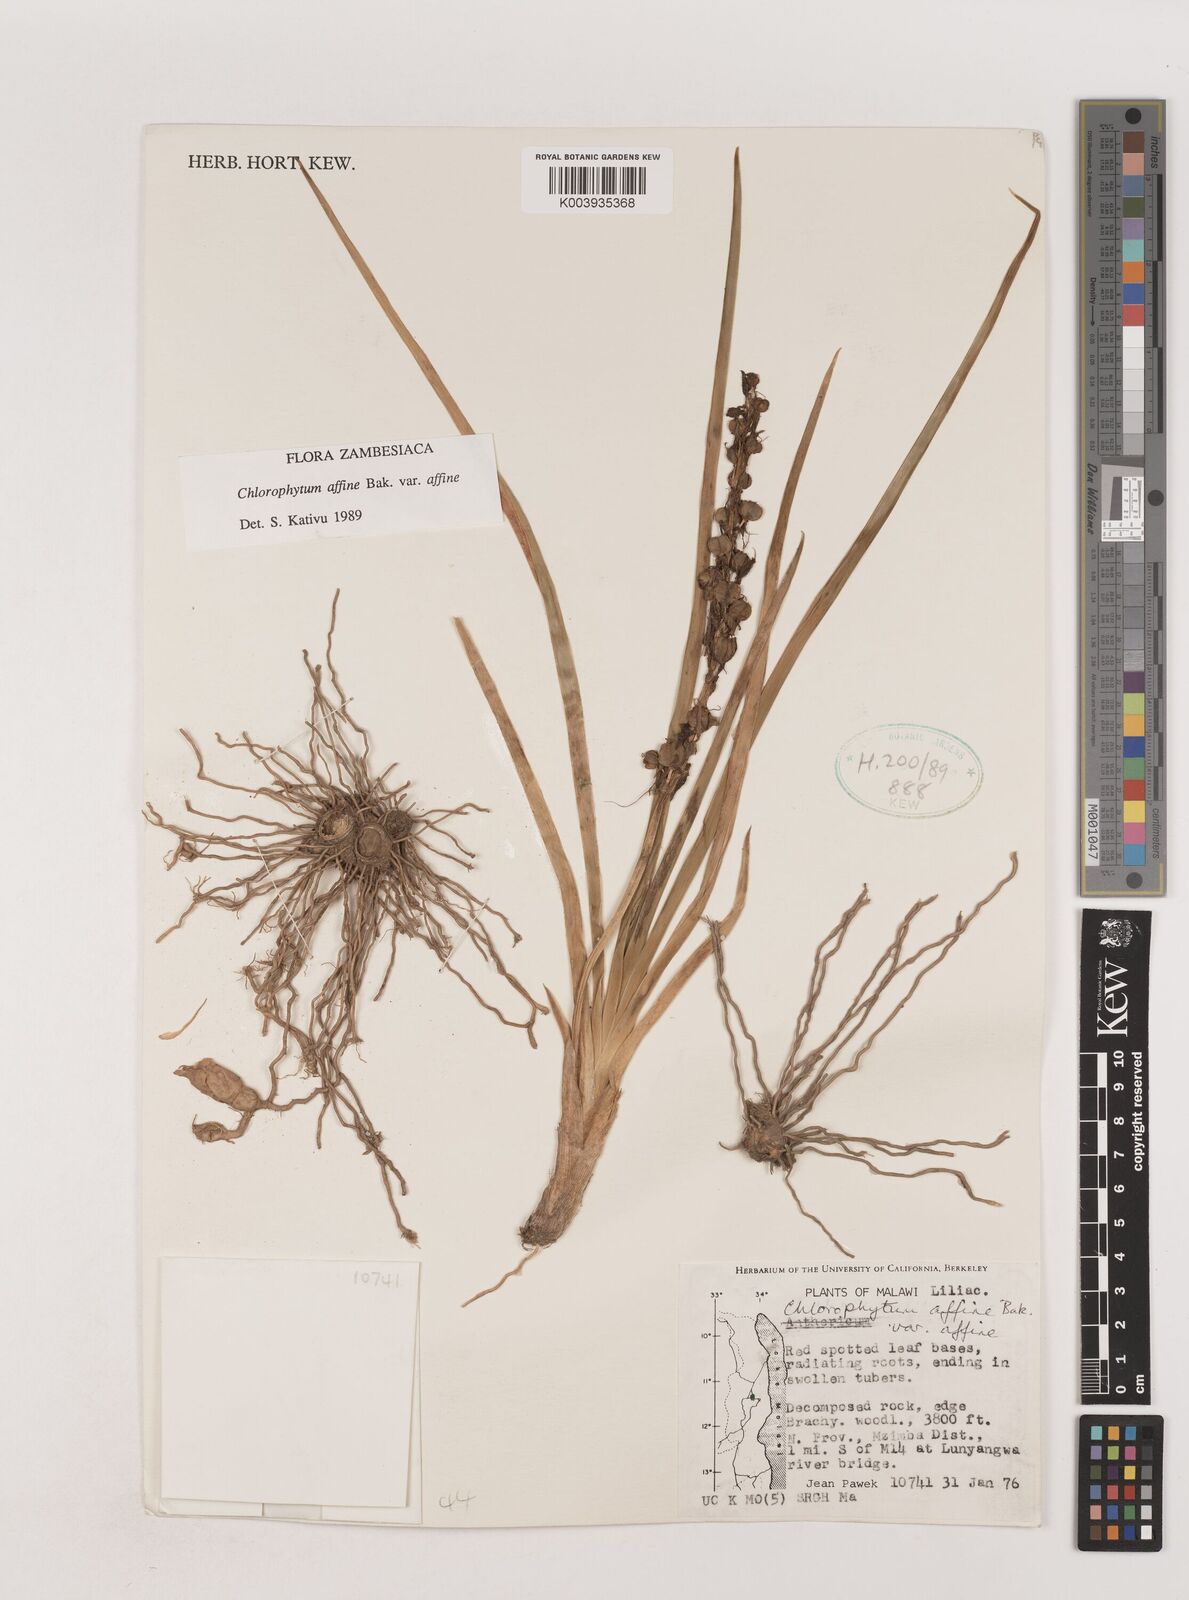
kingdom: Plantae
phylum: Tracheophyta
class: Liliopsida
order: Asparagales
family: Asparagaceae
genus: Chlorophytum
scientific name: Chlorophytum affine
